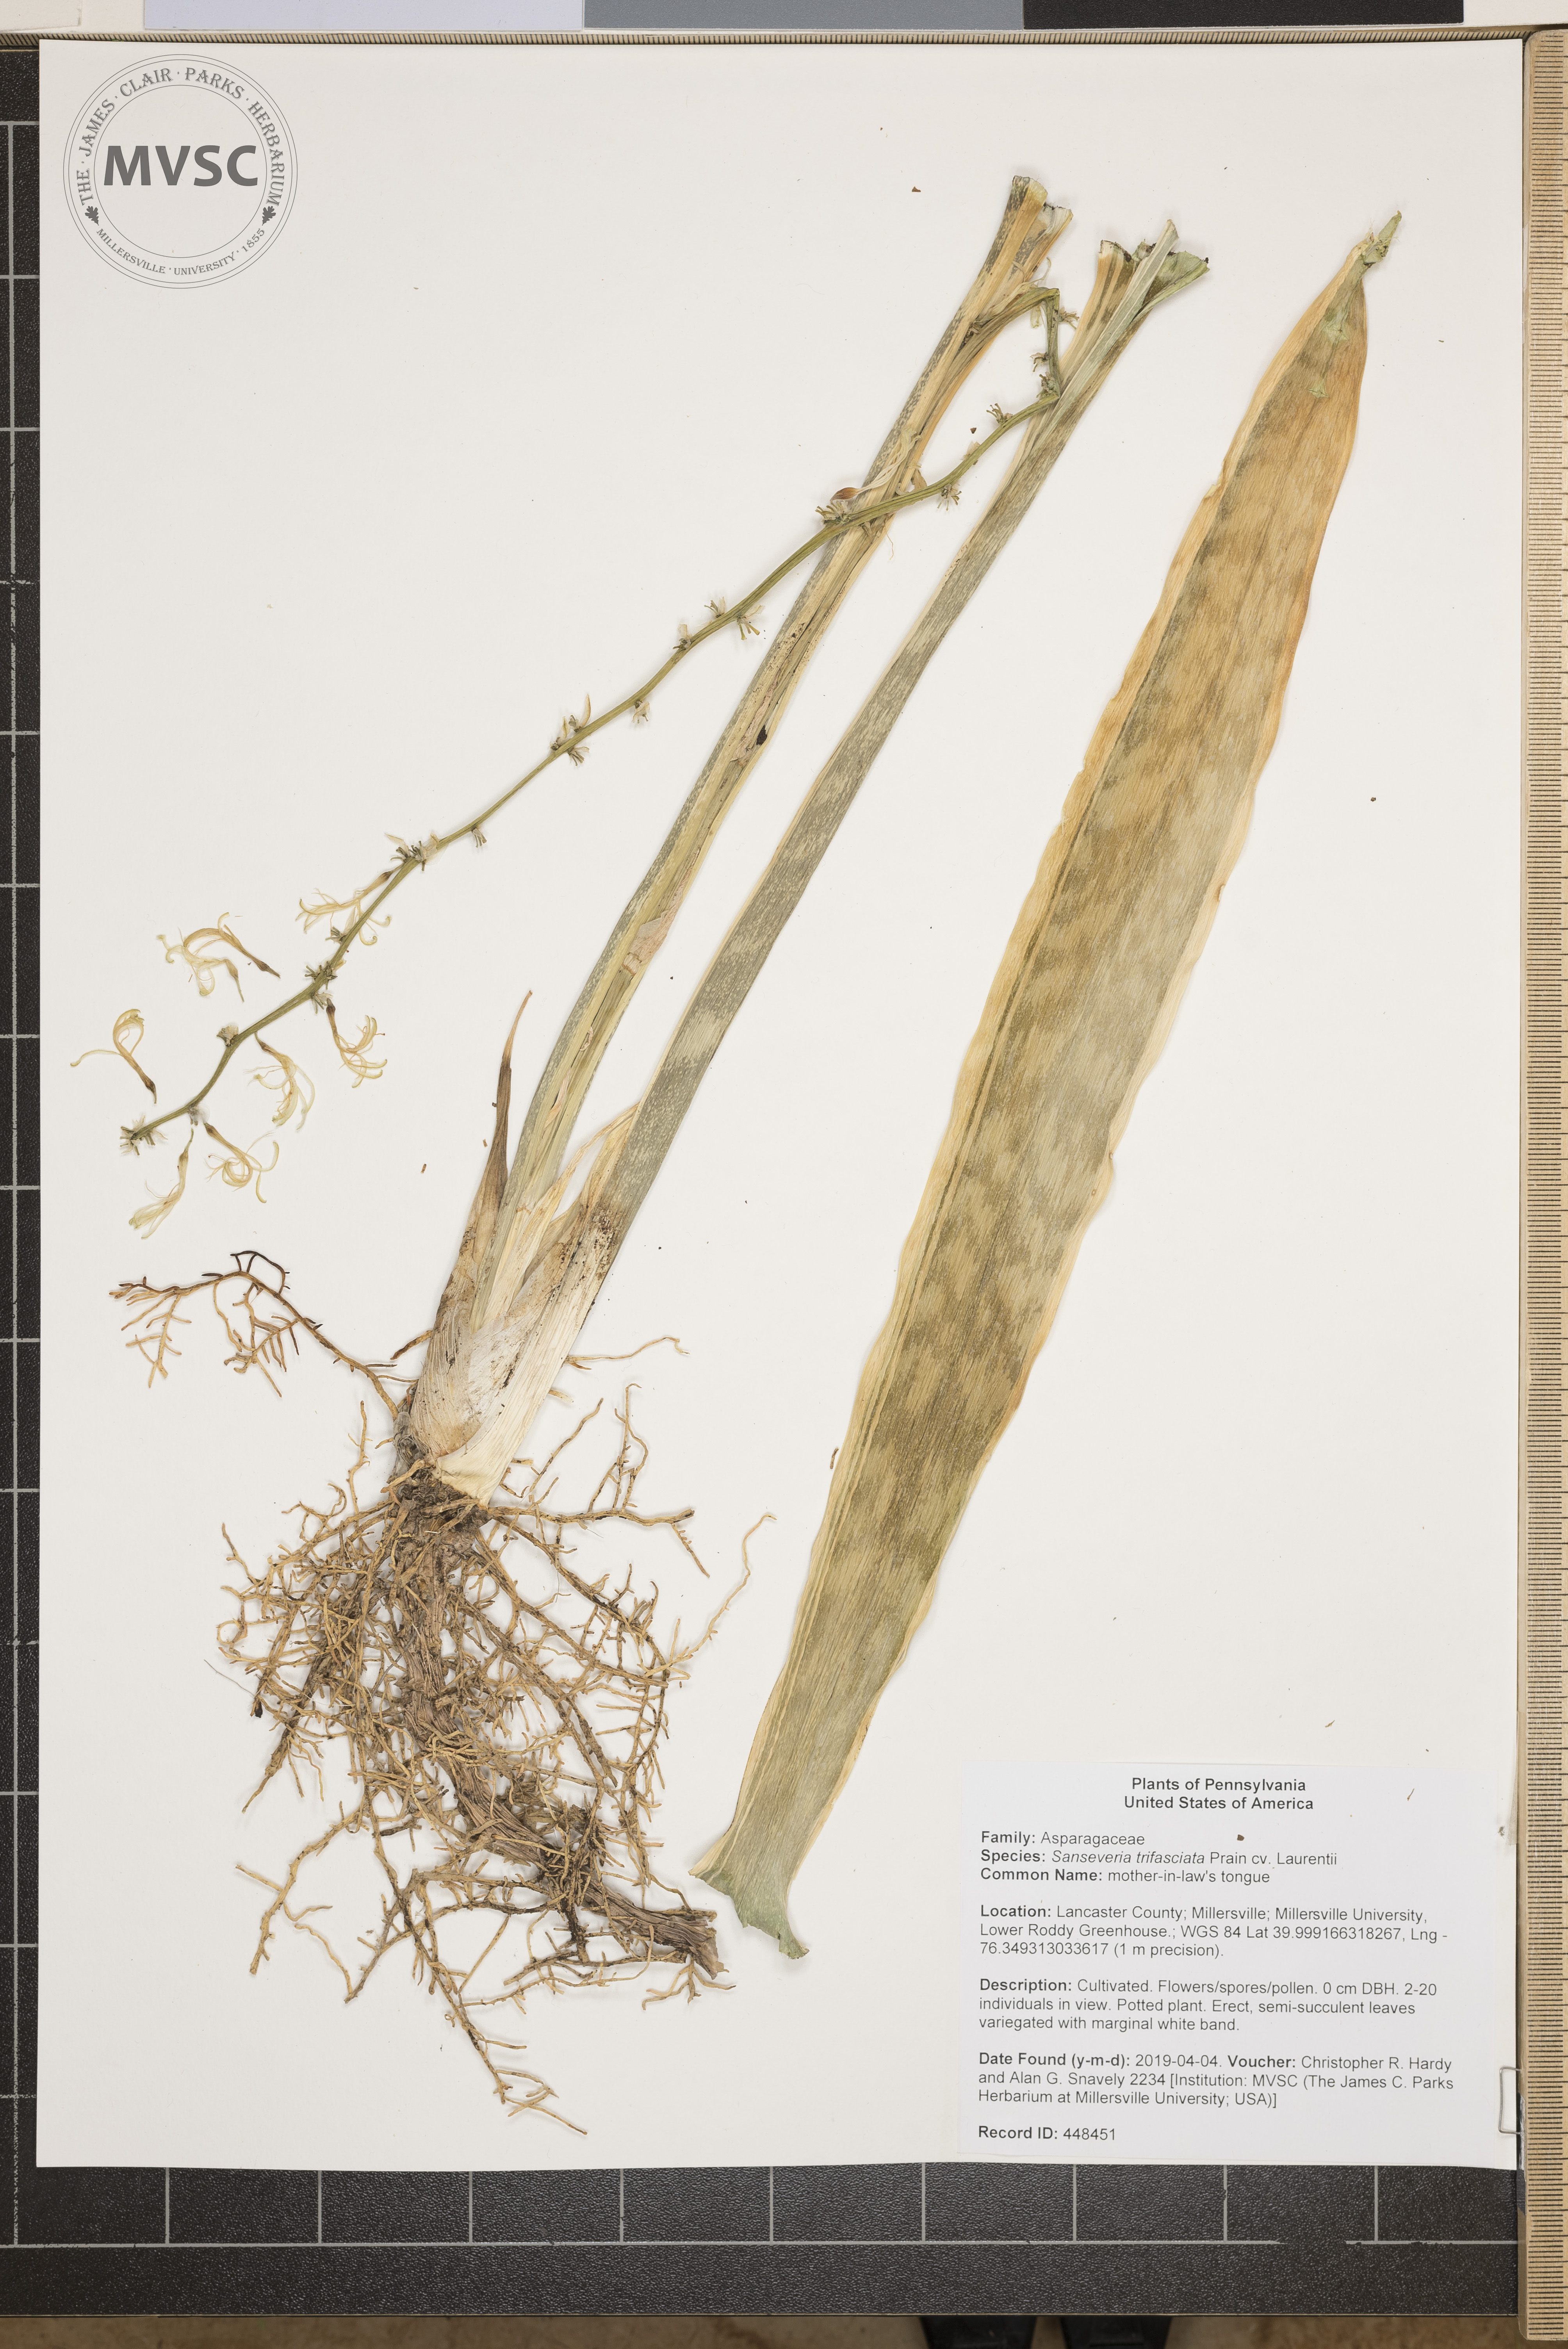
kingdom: Plantae
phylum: Tracheophyta
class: Liliopsida
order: Asparagales
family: Asparagaceae
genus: Dracaena
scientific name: Dracaena trifasciata
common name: mother-in-law's tongue
